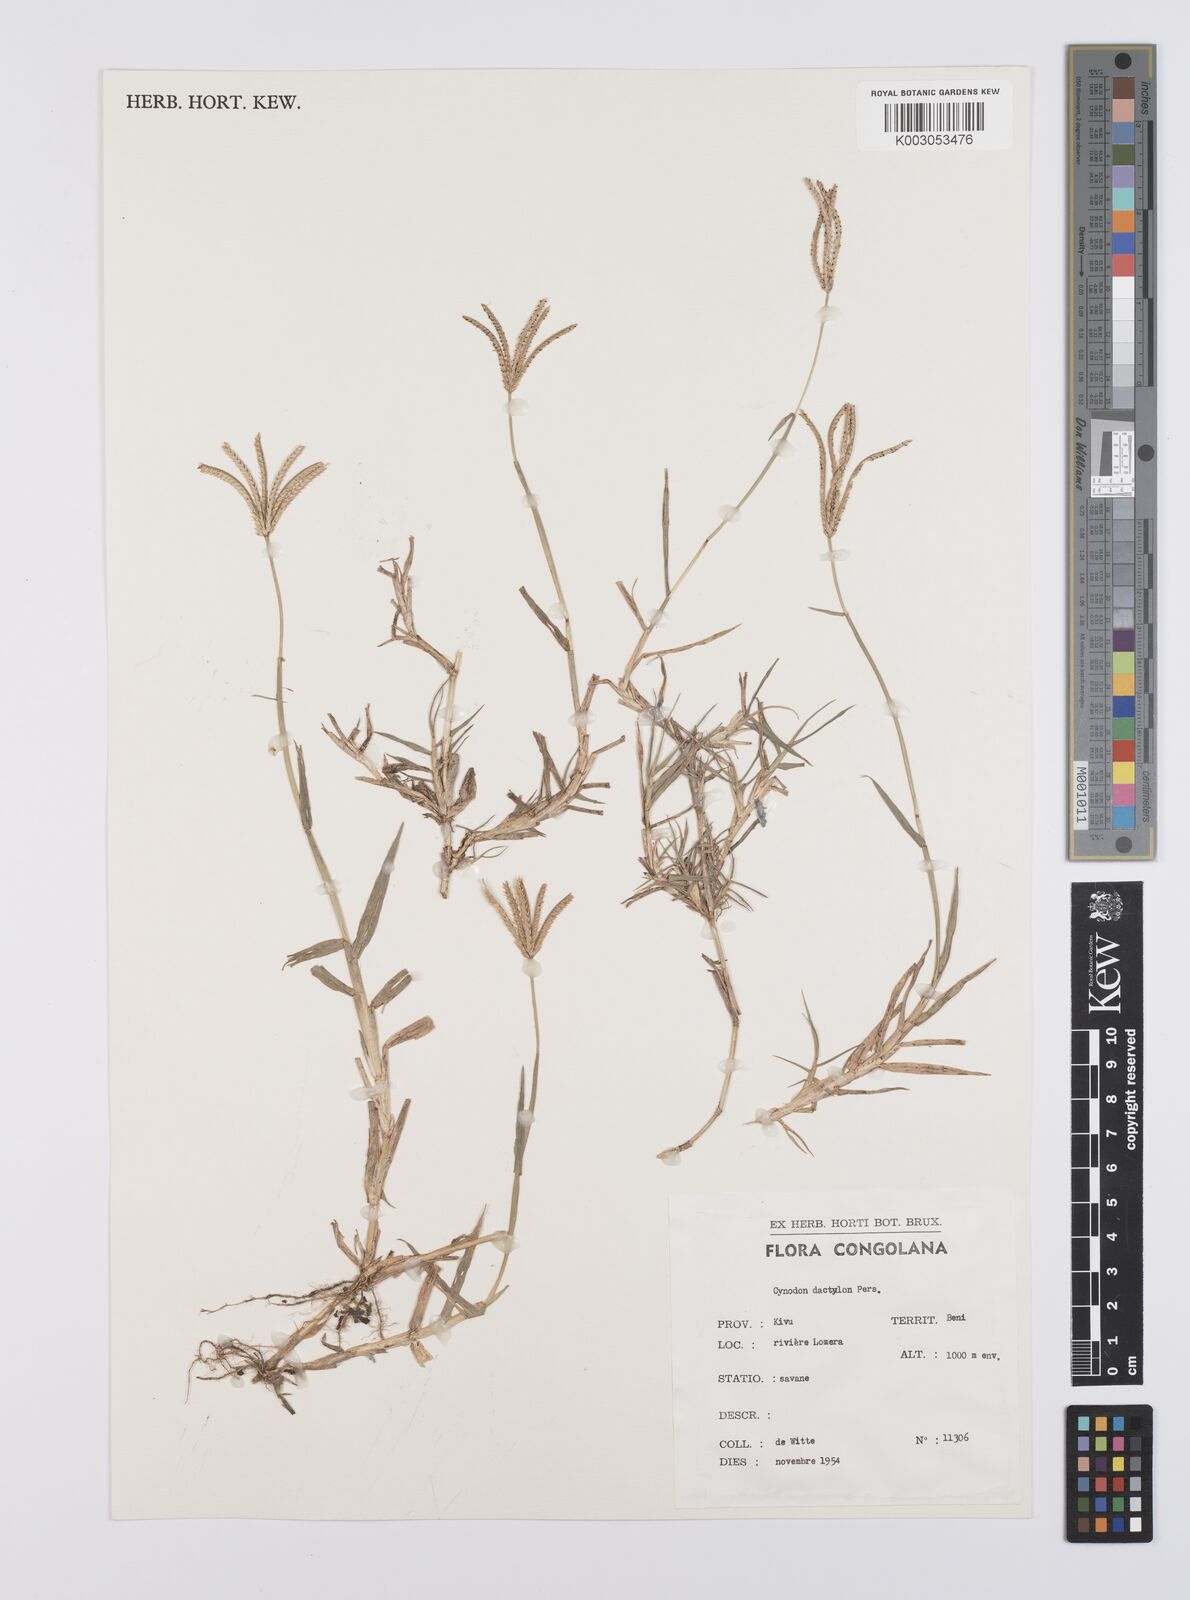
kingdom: Plantae
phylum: Tracheophyta
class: Liliopsida
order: Poales
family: Poaceae
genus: Cynodon
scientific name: Cynodon dactylon
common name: Bermuda grass
